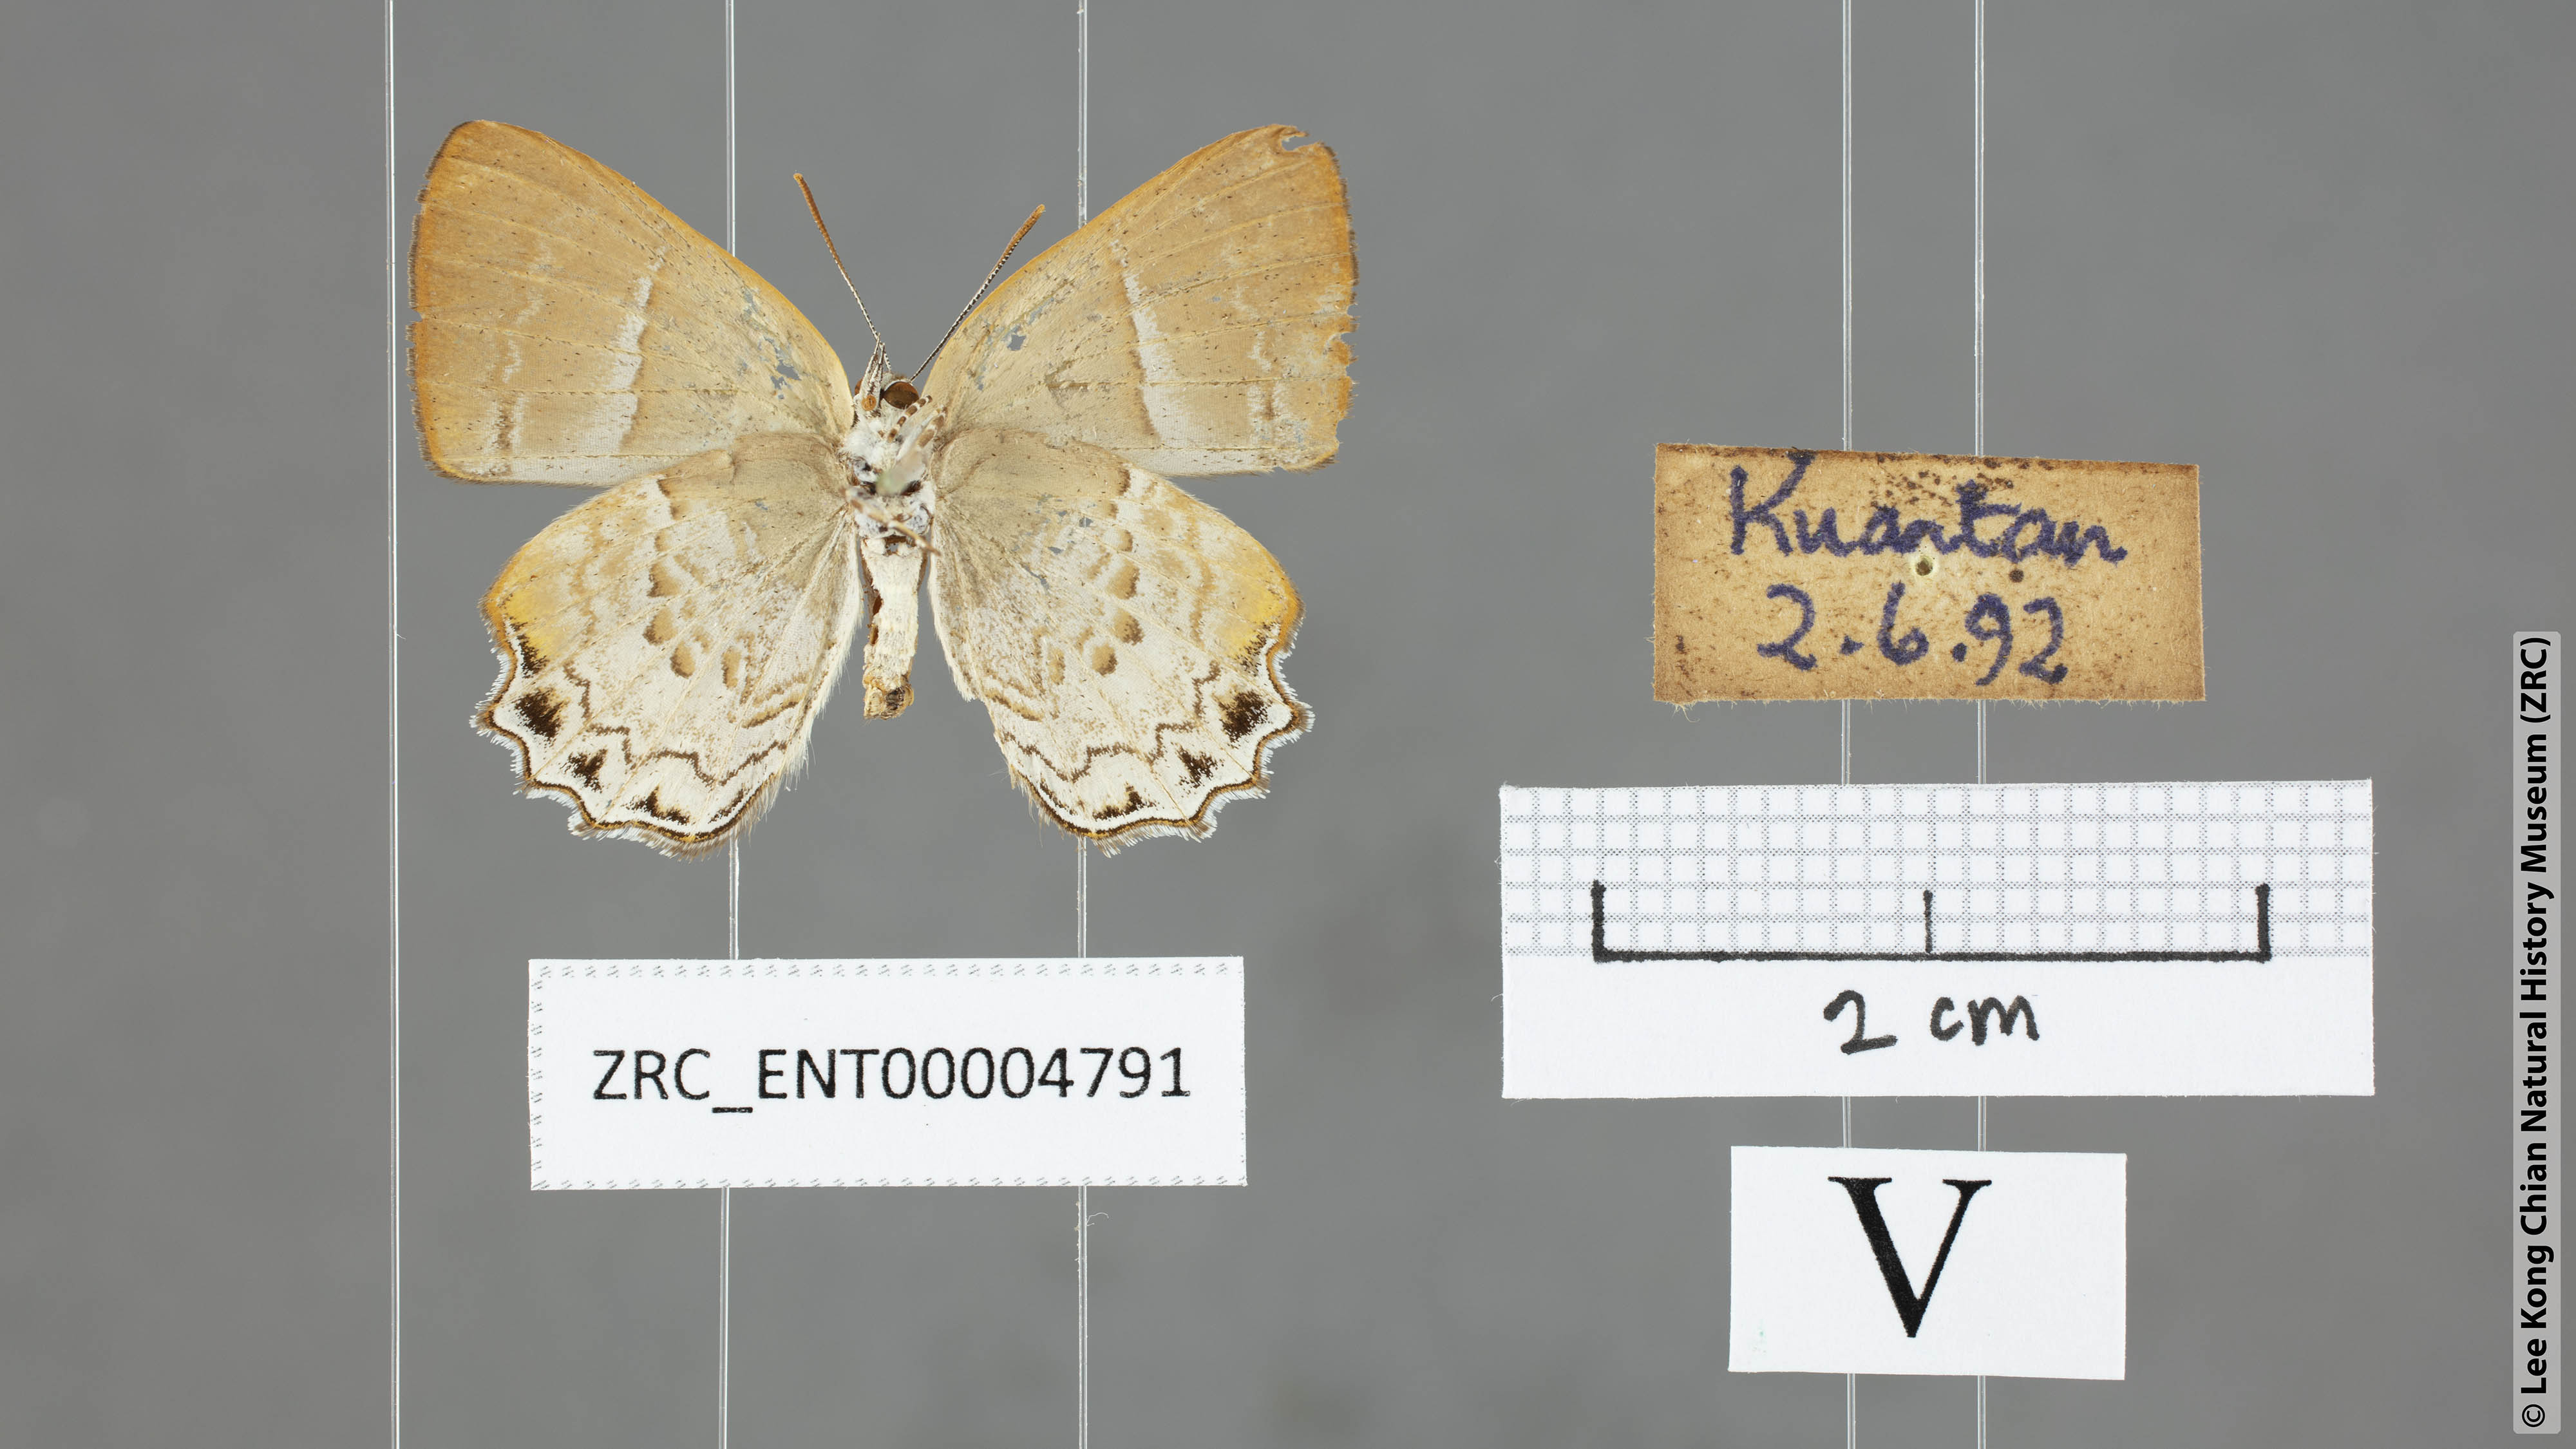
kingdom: Animalia
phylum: Arthropoda
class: Insecta
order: Lepidoptera
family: Lycaenidae
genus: Simiskina
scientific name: Simiskina pheretia
